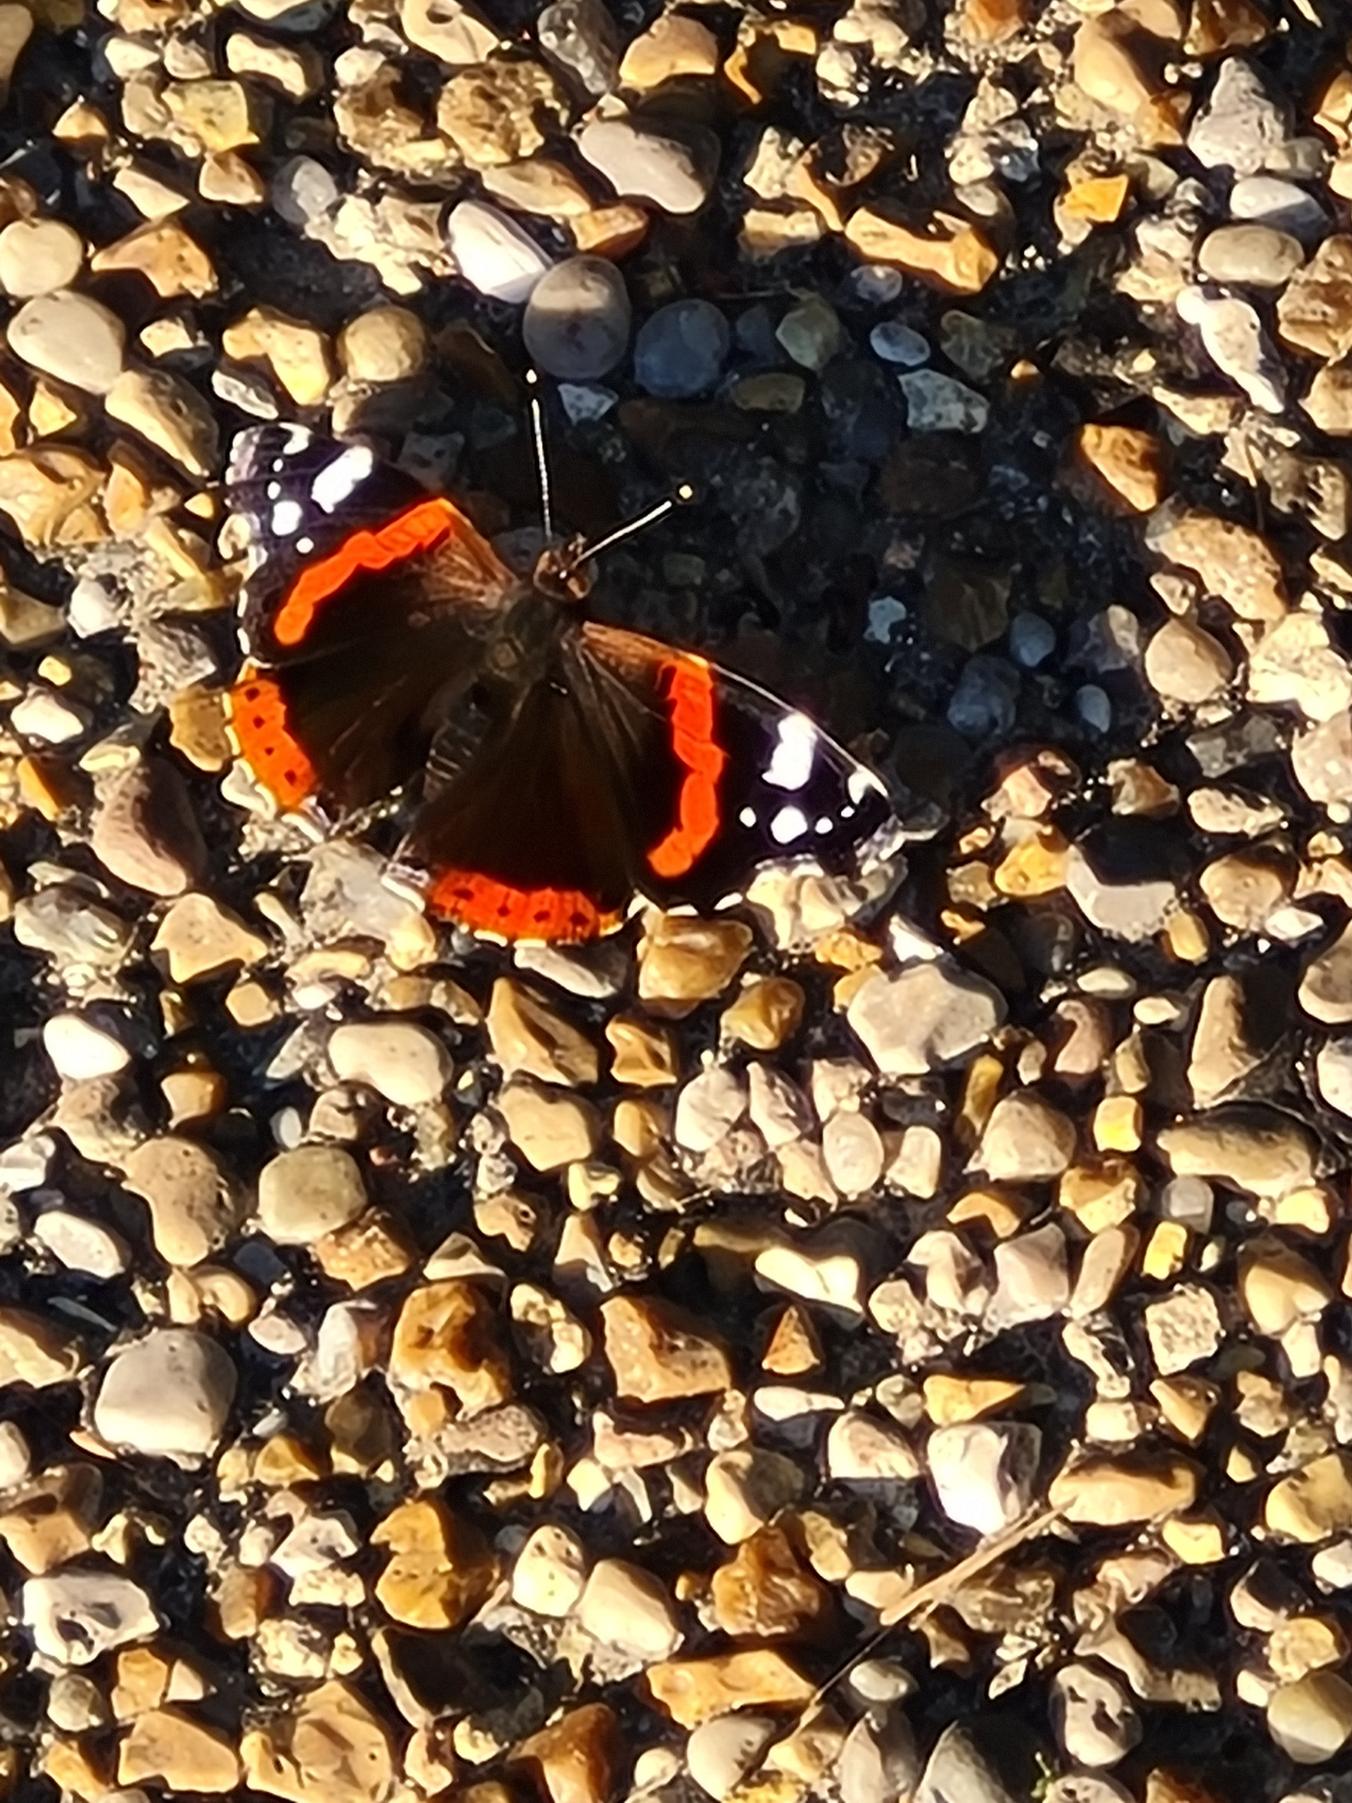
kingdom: Animalia
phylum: Arthropoda
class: Insecta
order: Lepidoptera
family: Nymphalidae
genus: Vanessa
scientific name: Vanessa atalanta
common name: Admiral
